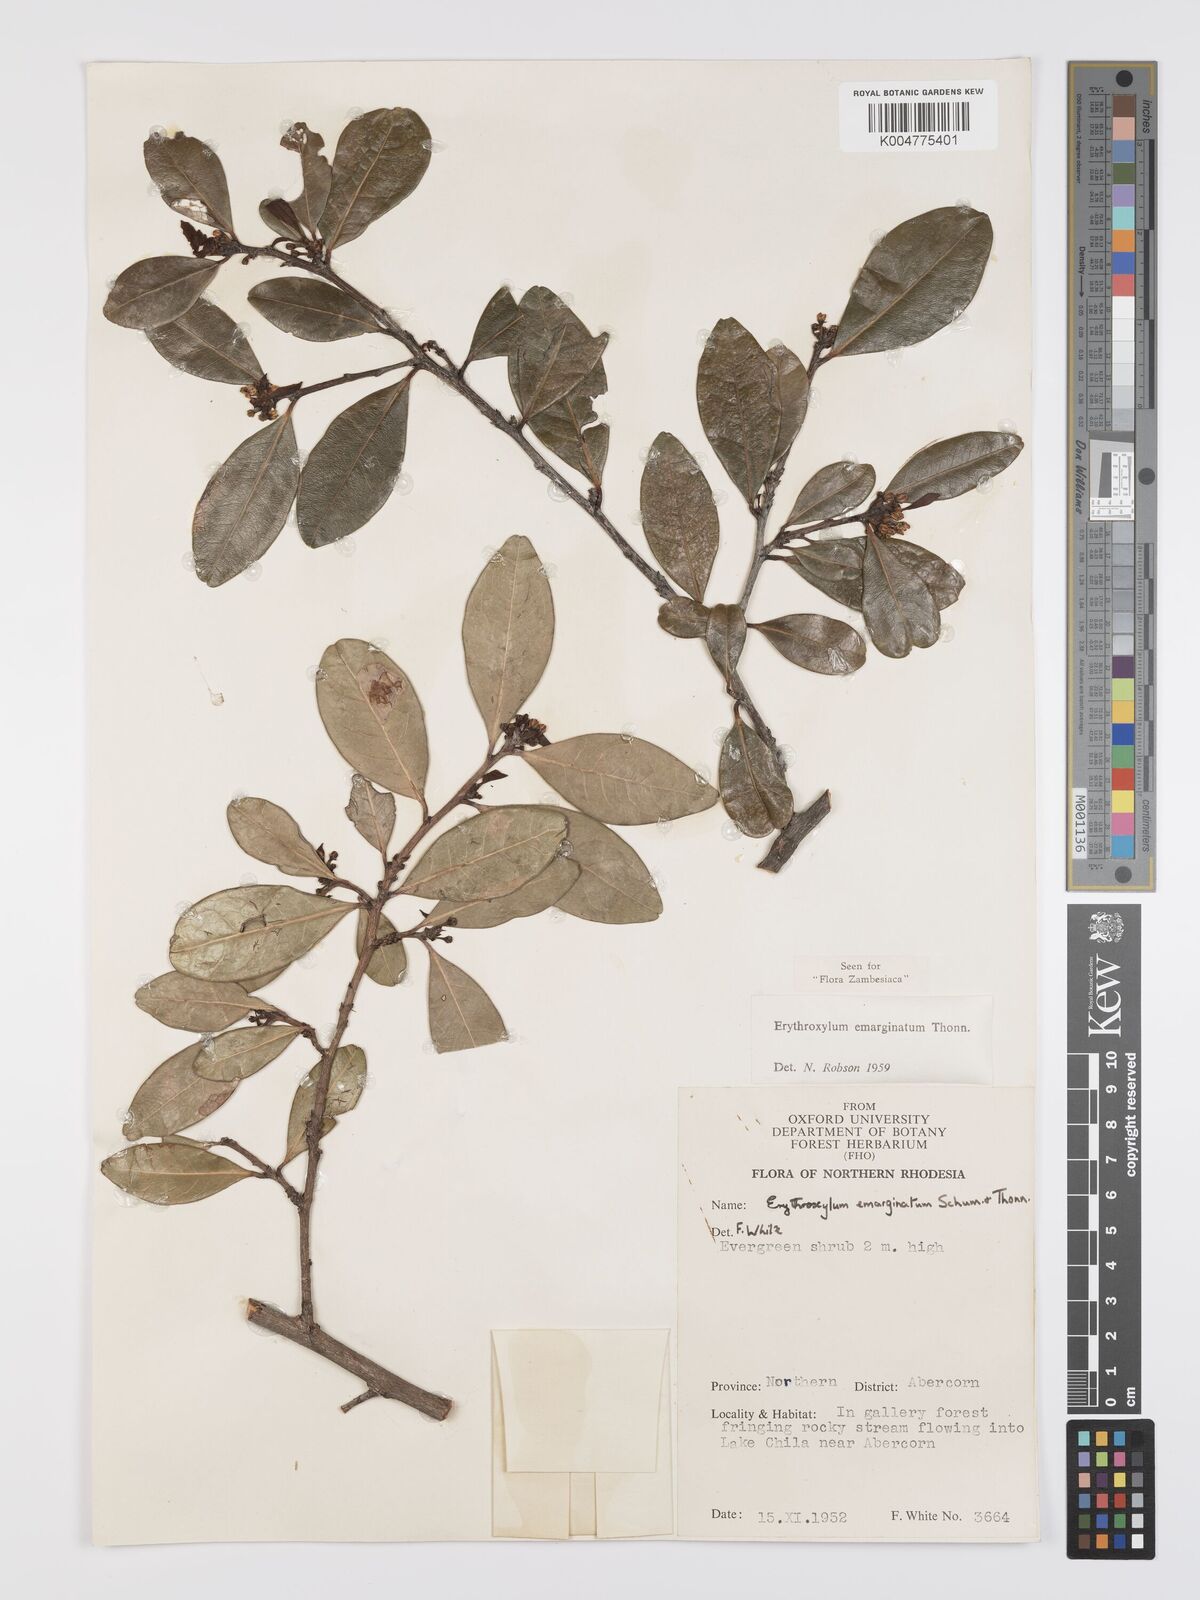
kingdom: Plantae
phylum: Tracheophyta
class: Magnoliopsida
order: Malpighiales
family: Erythroxylaceae
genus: Erythroxylum
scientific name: Erythroxylum emarginatum
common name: African coca-tree
